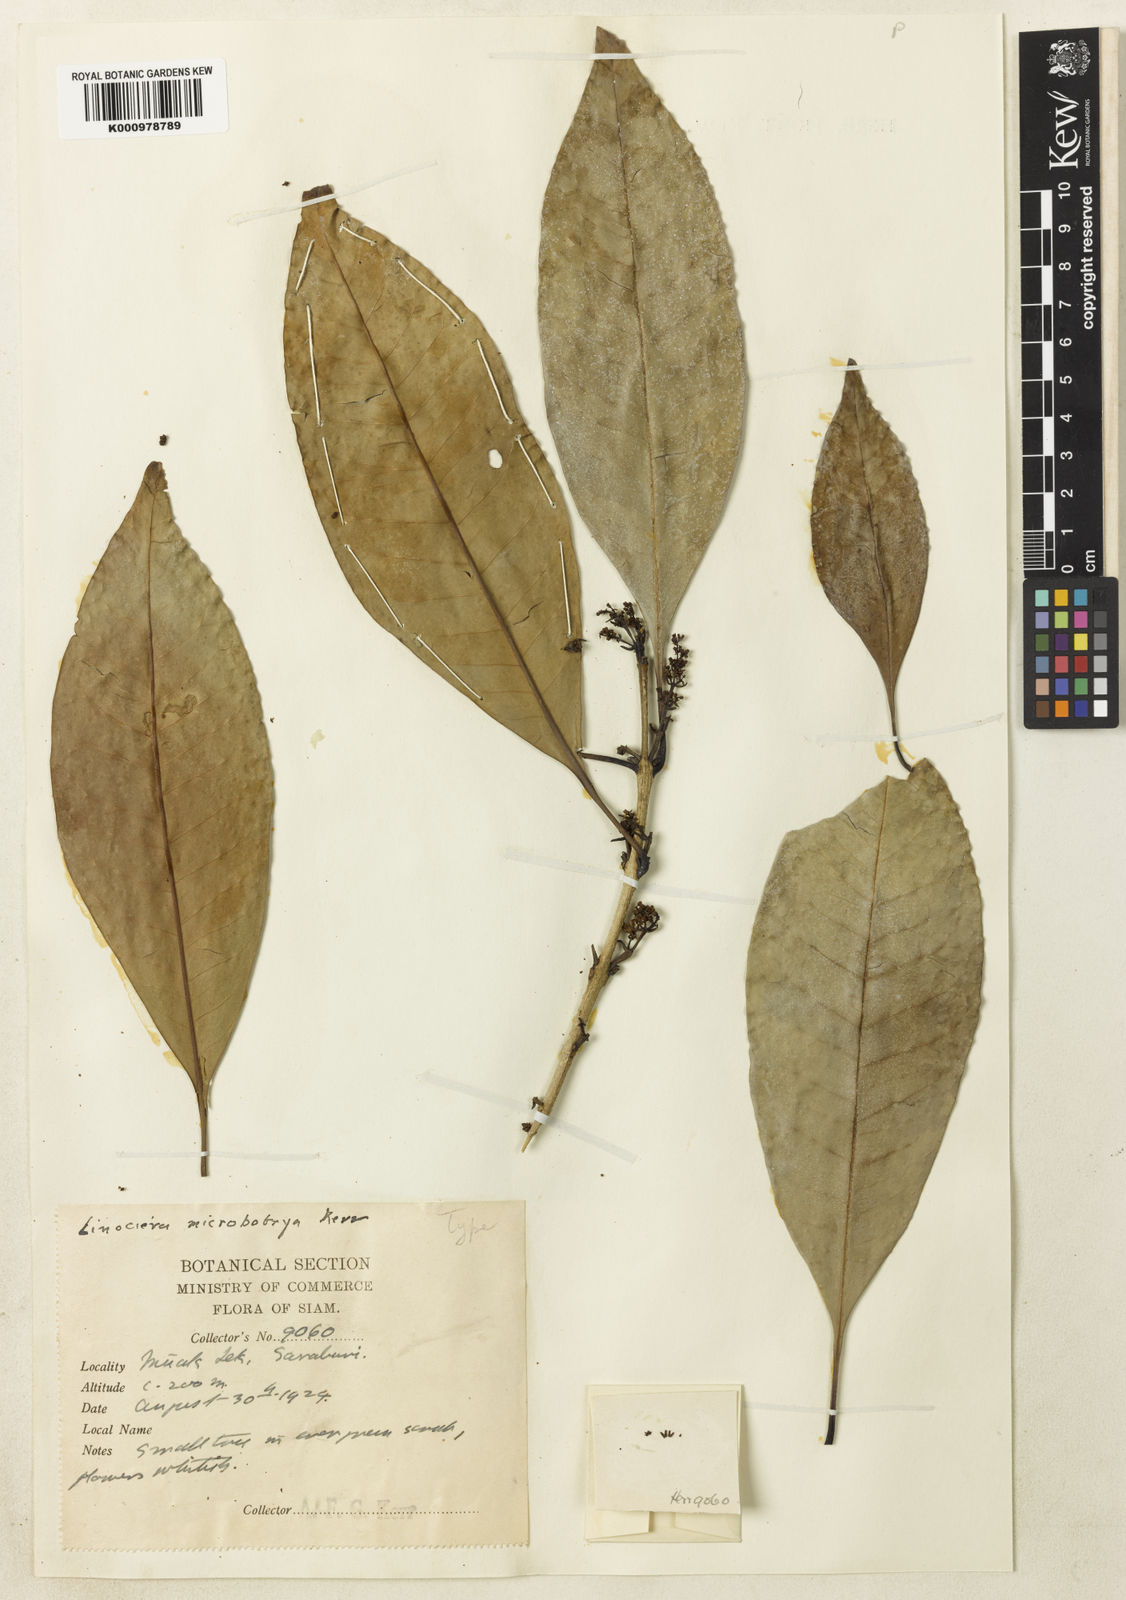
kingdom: Plantae
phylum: Tracheophyta
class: Magnoliopsida
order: Lamiales
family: Oleaceae
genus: Chionanthus
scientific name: Chionanthus microbotrys
